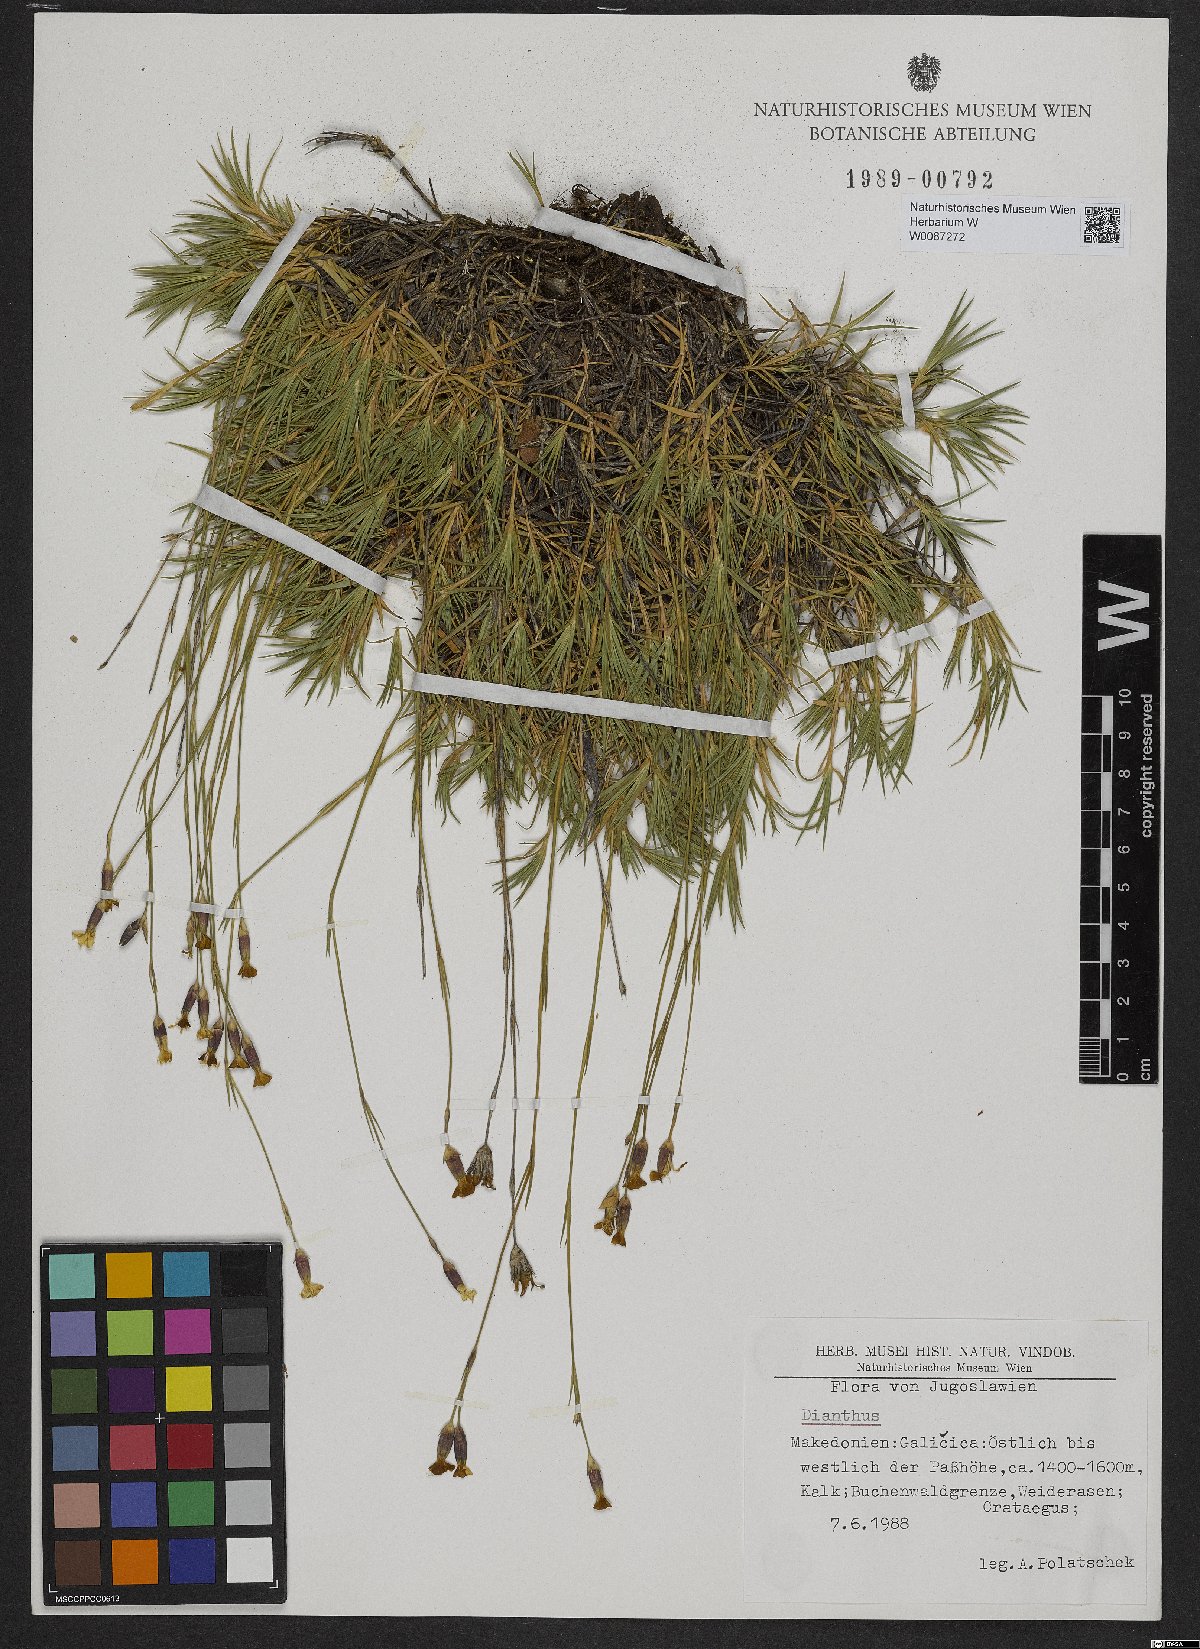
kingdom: Plantae
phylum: Tracheophyta
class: Magnoliopsida
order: Caryophyllales
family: Caryophyllaceae
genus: Dianthus
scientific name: Dianthus
